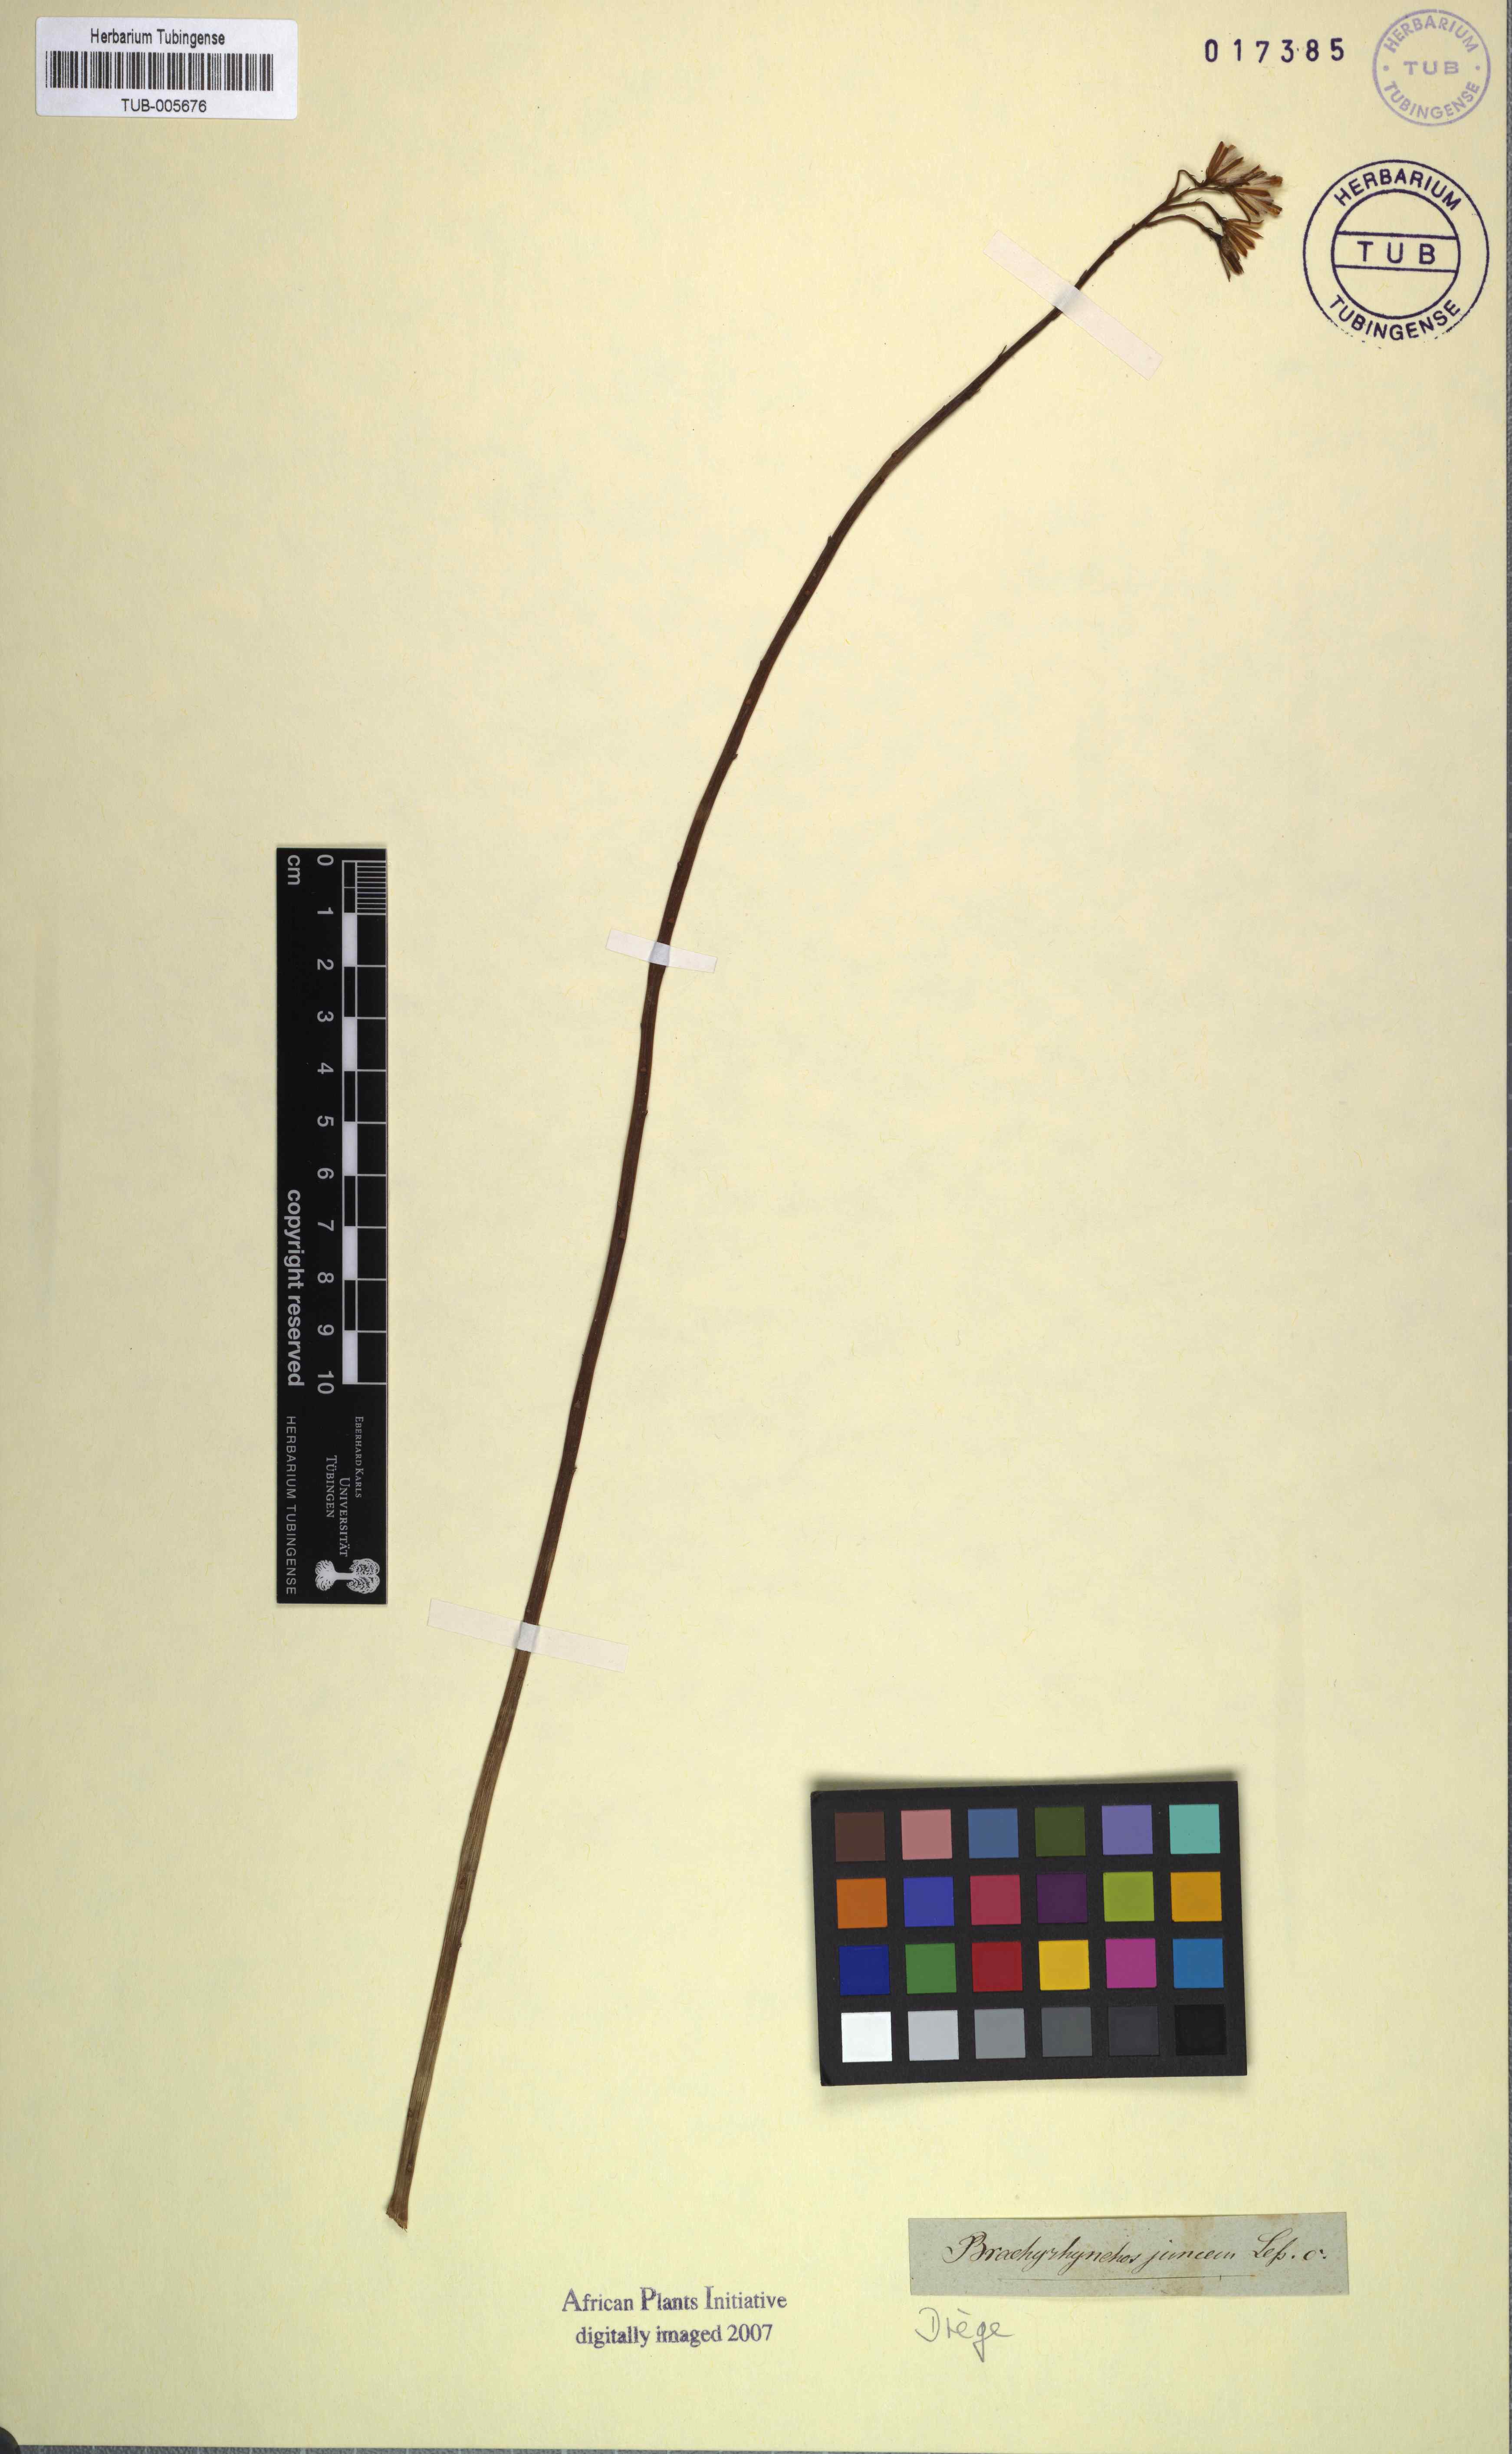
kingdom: Plantae
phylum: Tracheophyta
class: Magnoliopsida
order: Asterales
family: Asteraceae
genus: Senecio
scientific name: Senecio junceus
